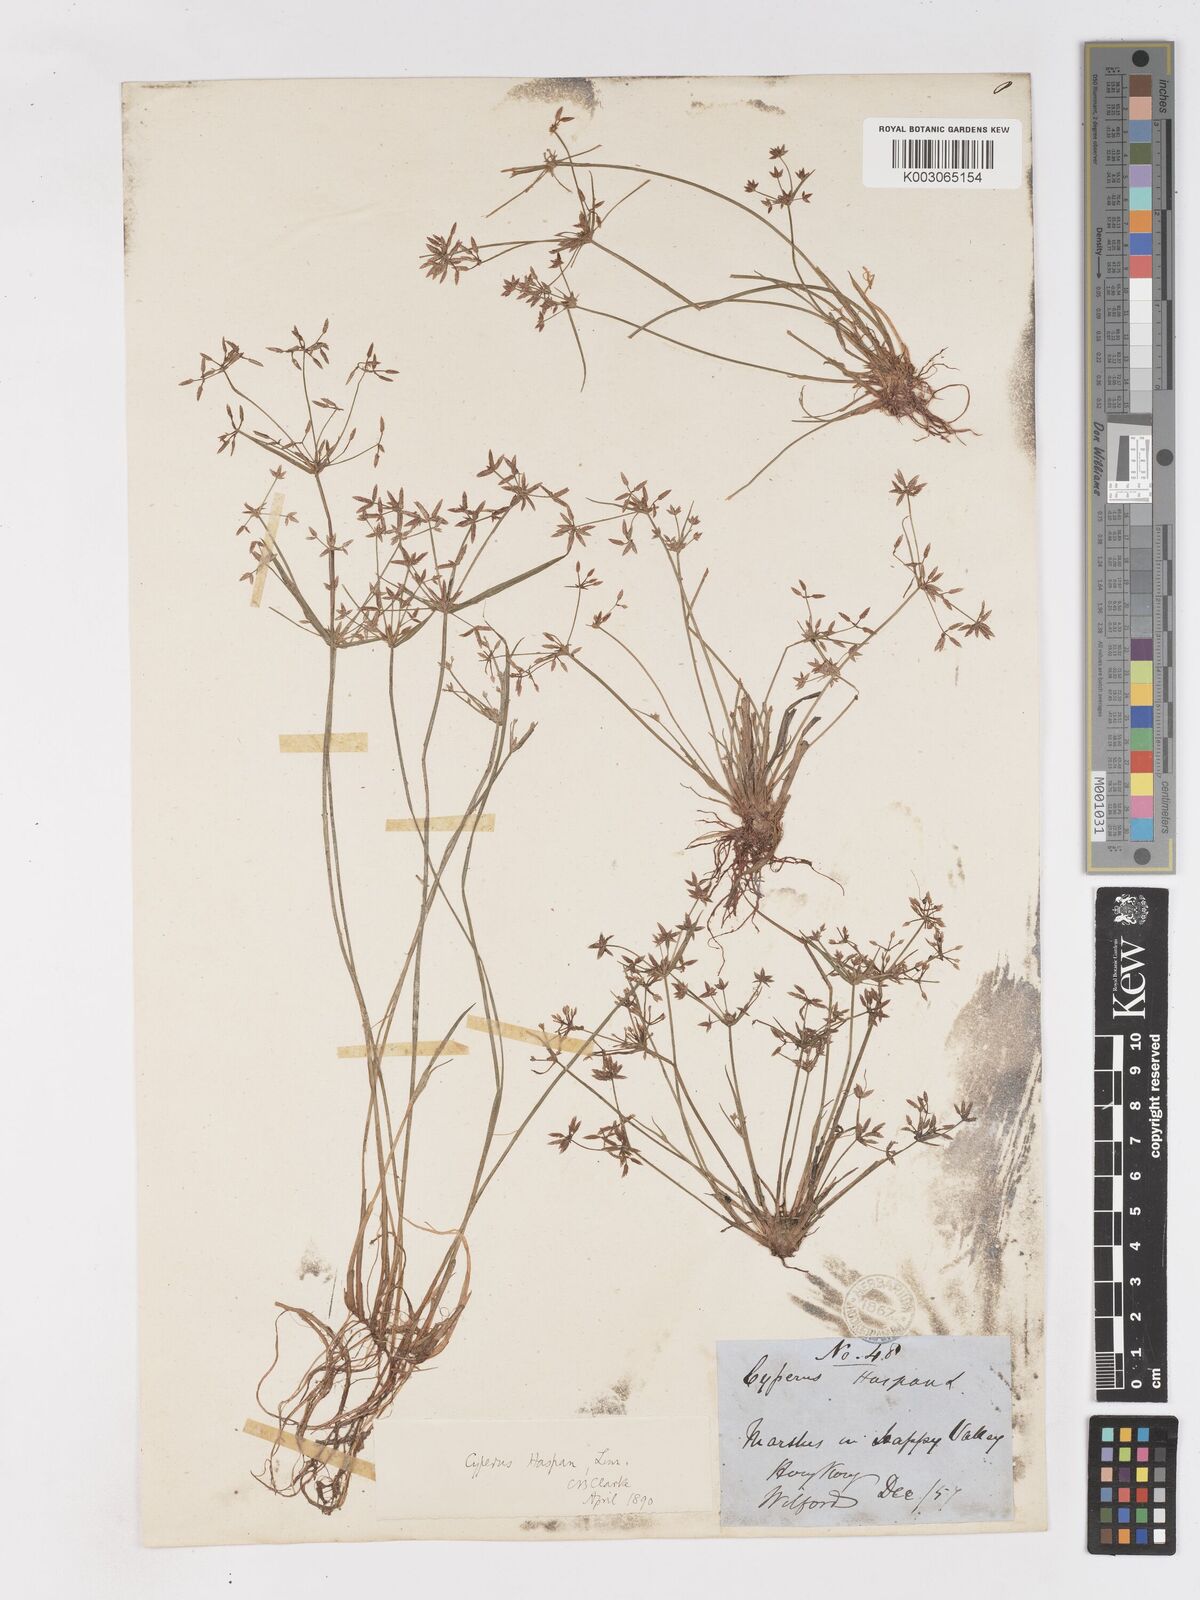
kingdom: Plantae
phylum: Tracheophyta
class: Liliopsida
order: Poales
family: Cyperaceae
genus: Cyperus
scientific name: Cyperus haspan
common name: Haspan flatsedge
